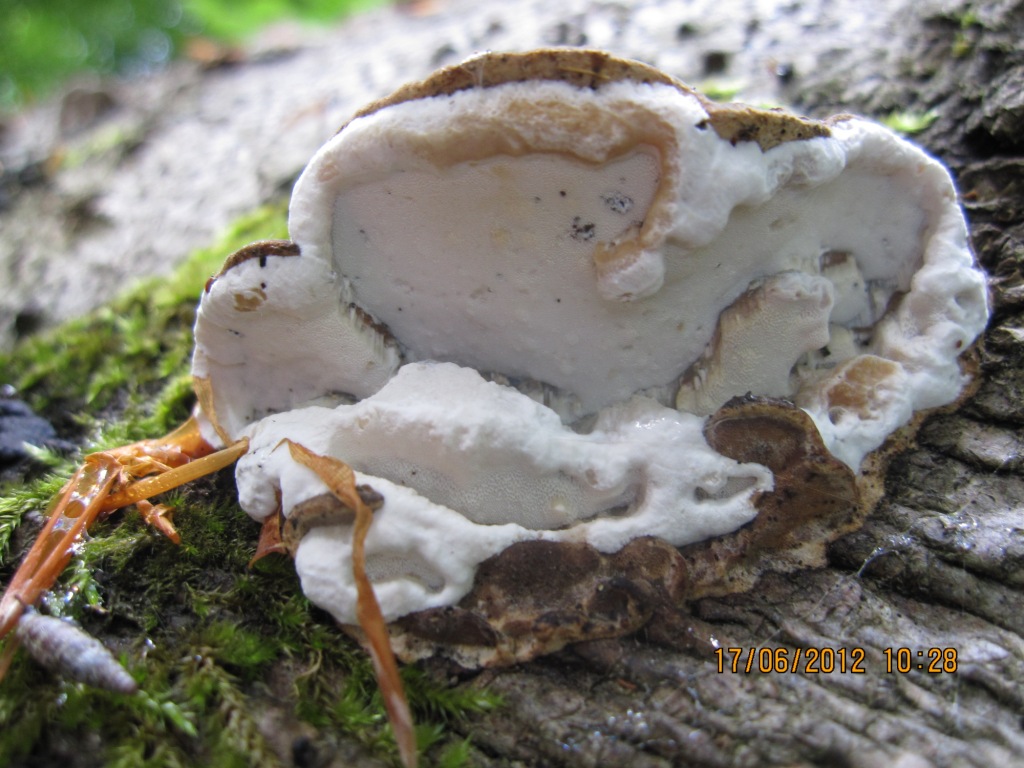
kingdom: Fungi
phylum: Basidiomycota
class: Agaricomycetes
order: Polyporales
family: Incrustoporiaceae
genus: Skeletocutis
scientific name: Skeletocutis nemoralis
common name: stor krystalporesvamp
